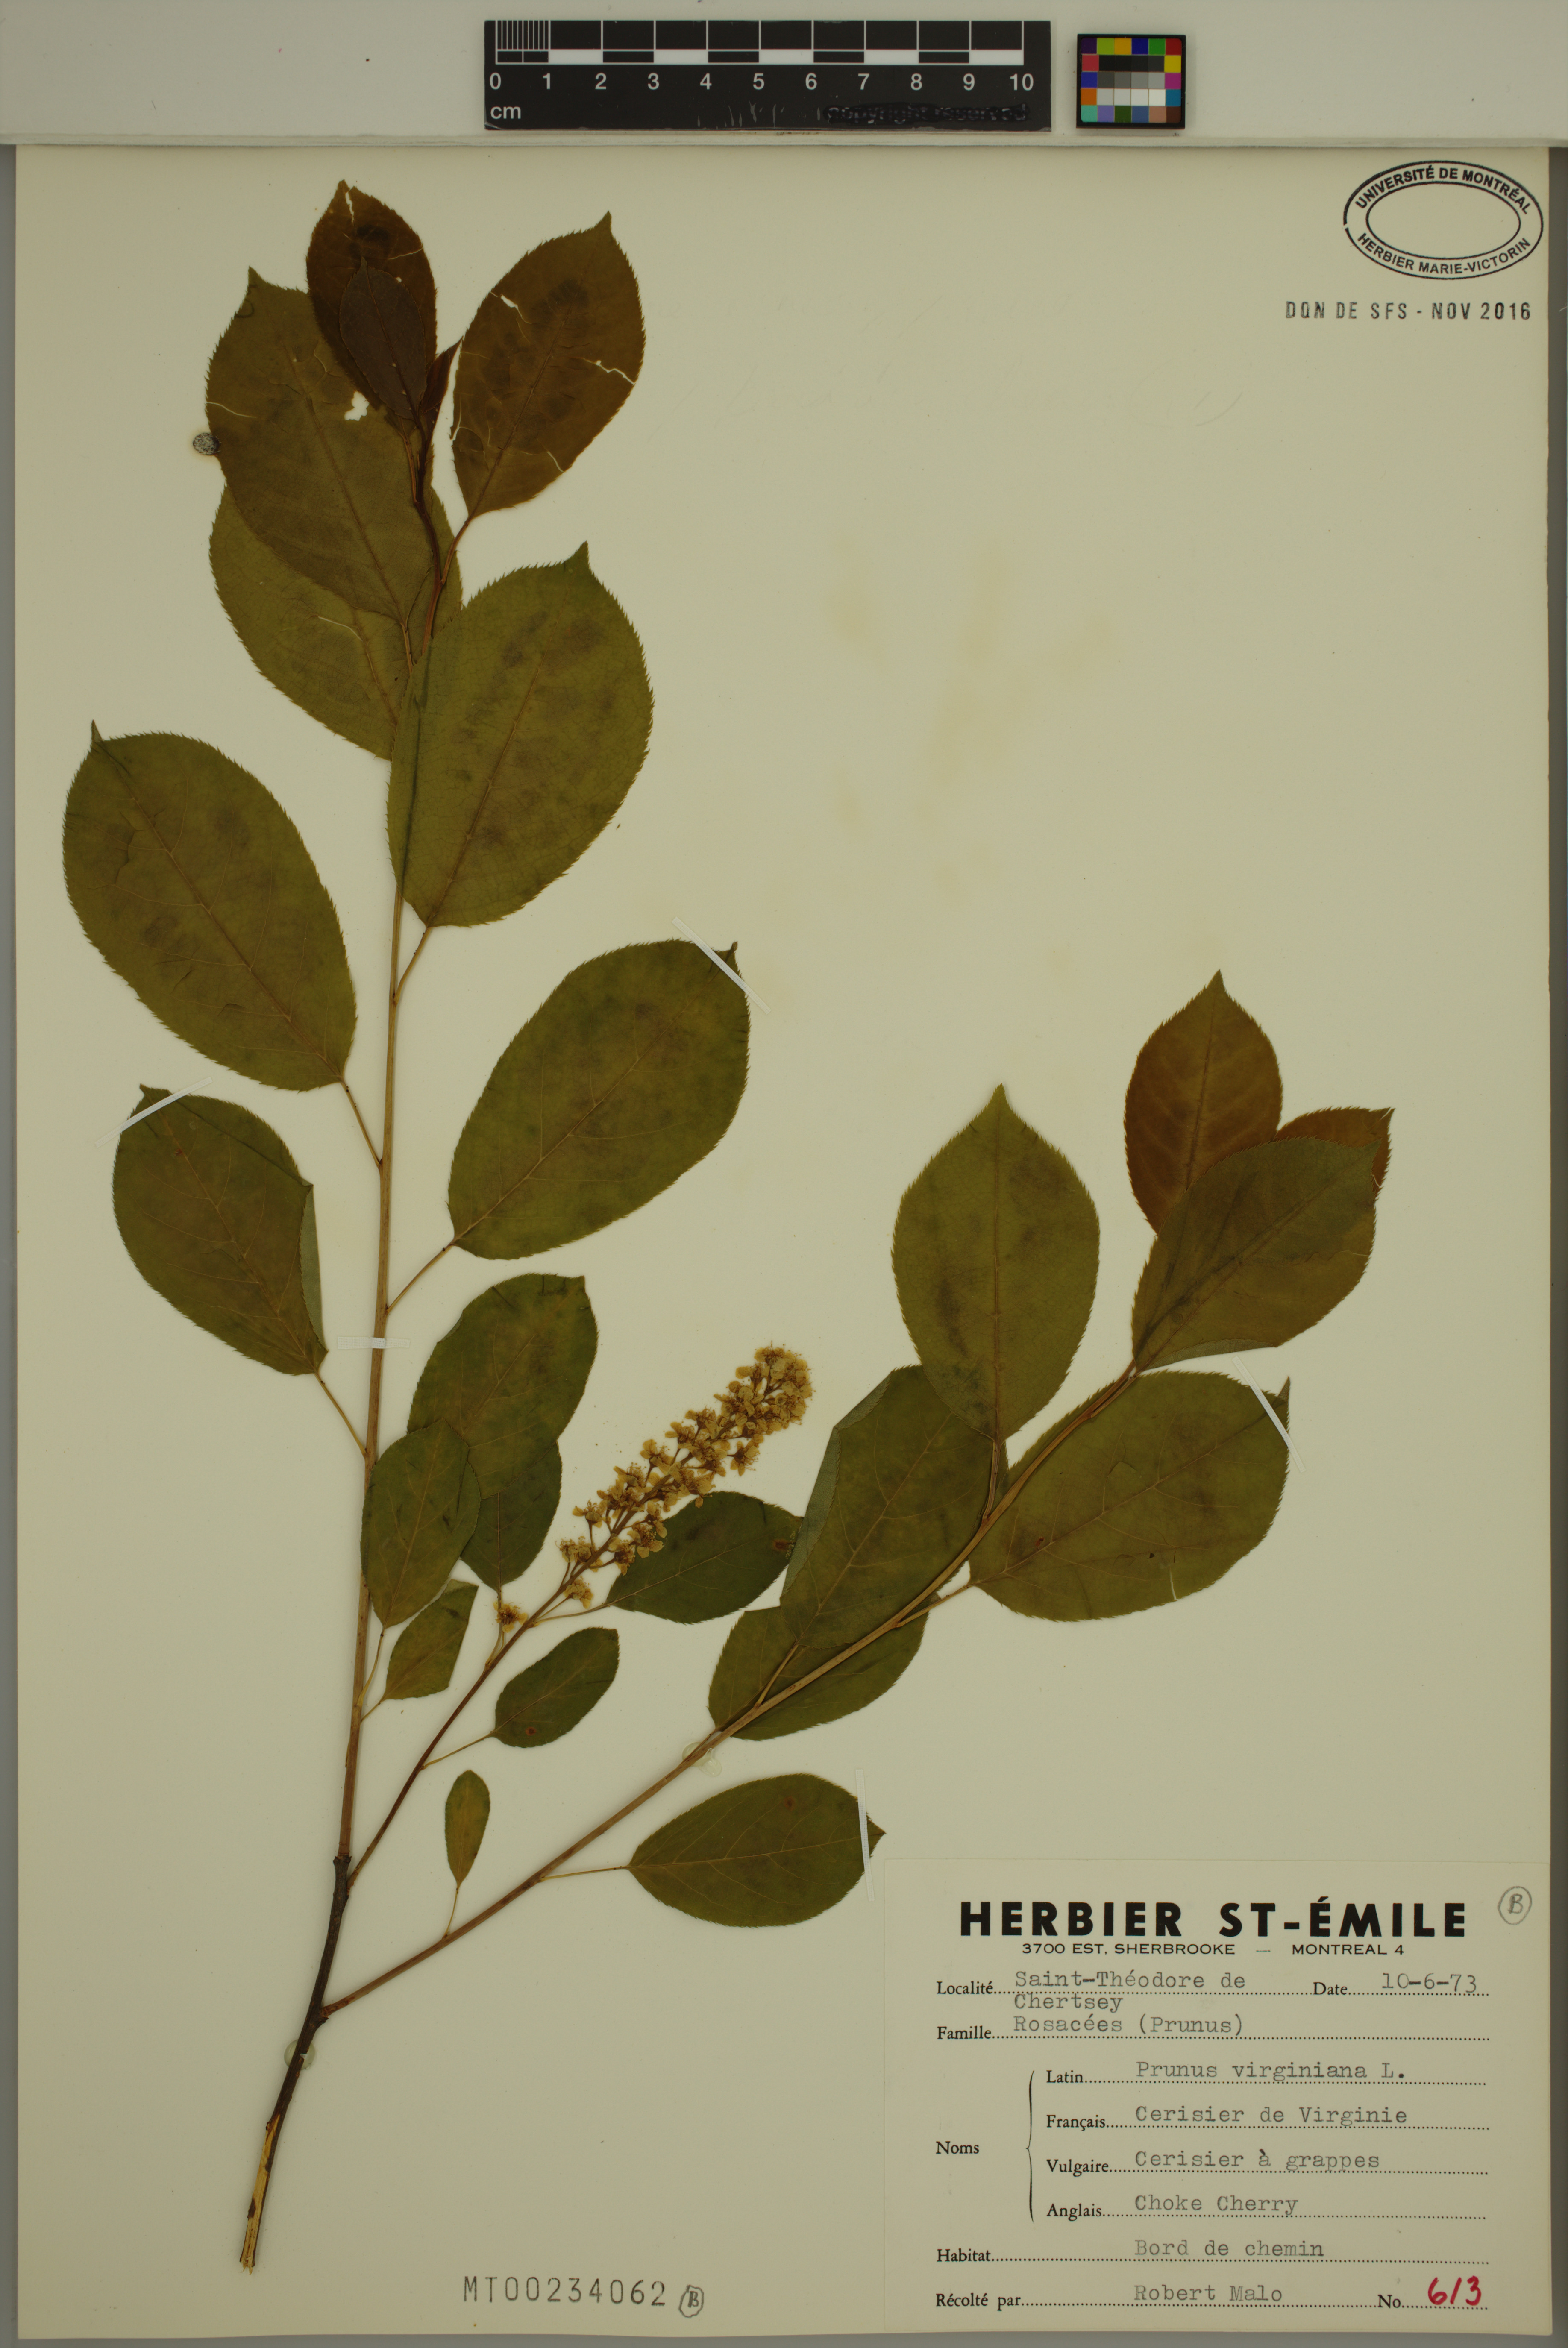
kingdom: Plantae
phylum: Tracheophyta
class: Magnoliopsida
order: Rosales
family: Rosaceae
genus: Prunus
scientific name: Prunus virginiana
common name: Chokecherry
